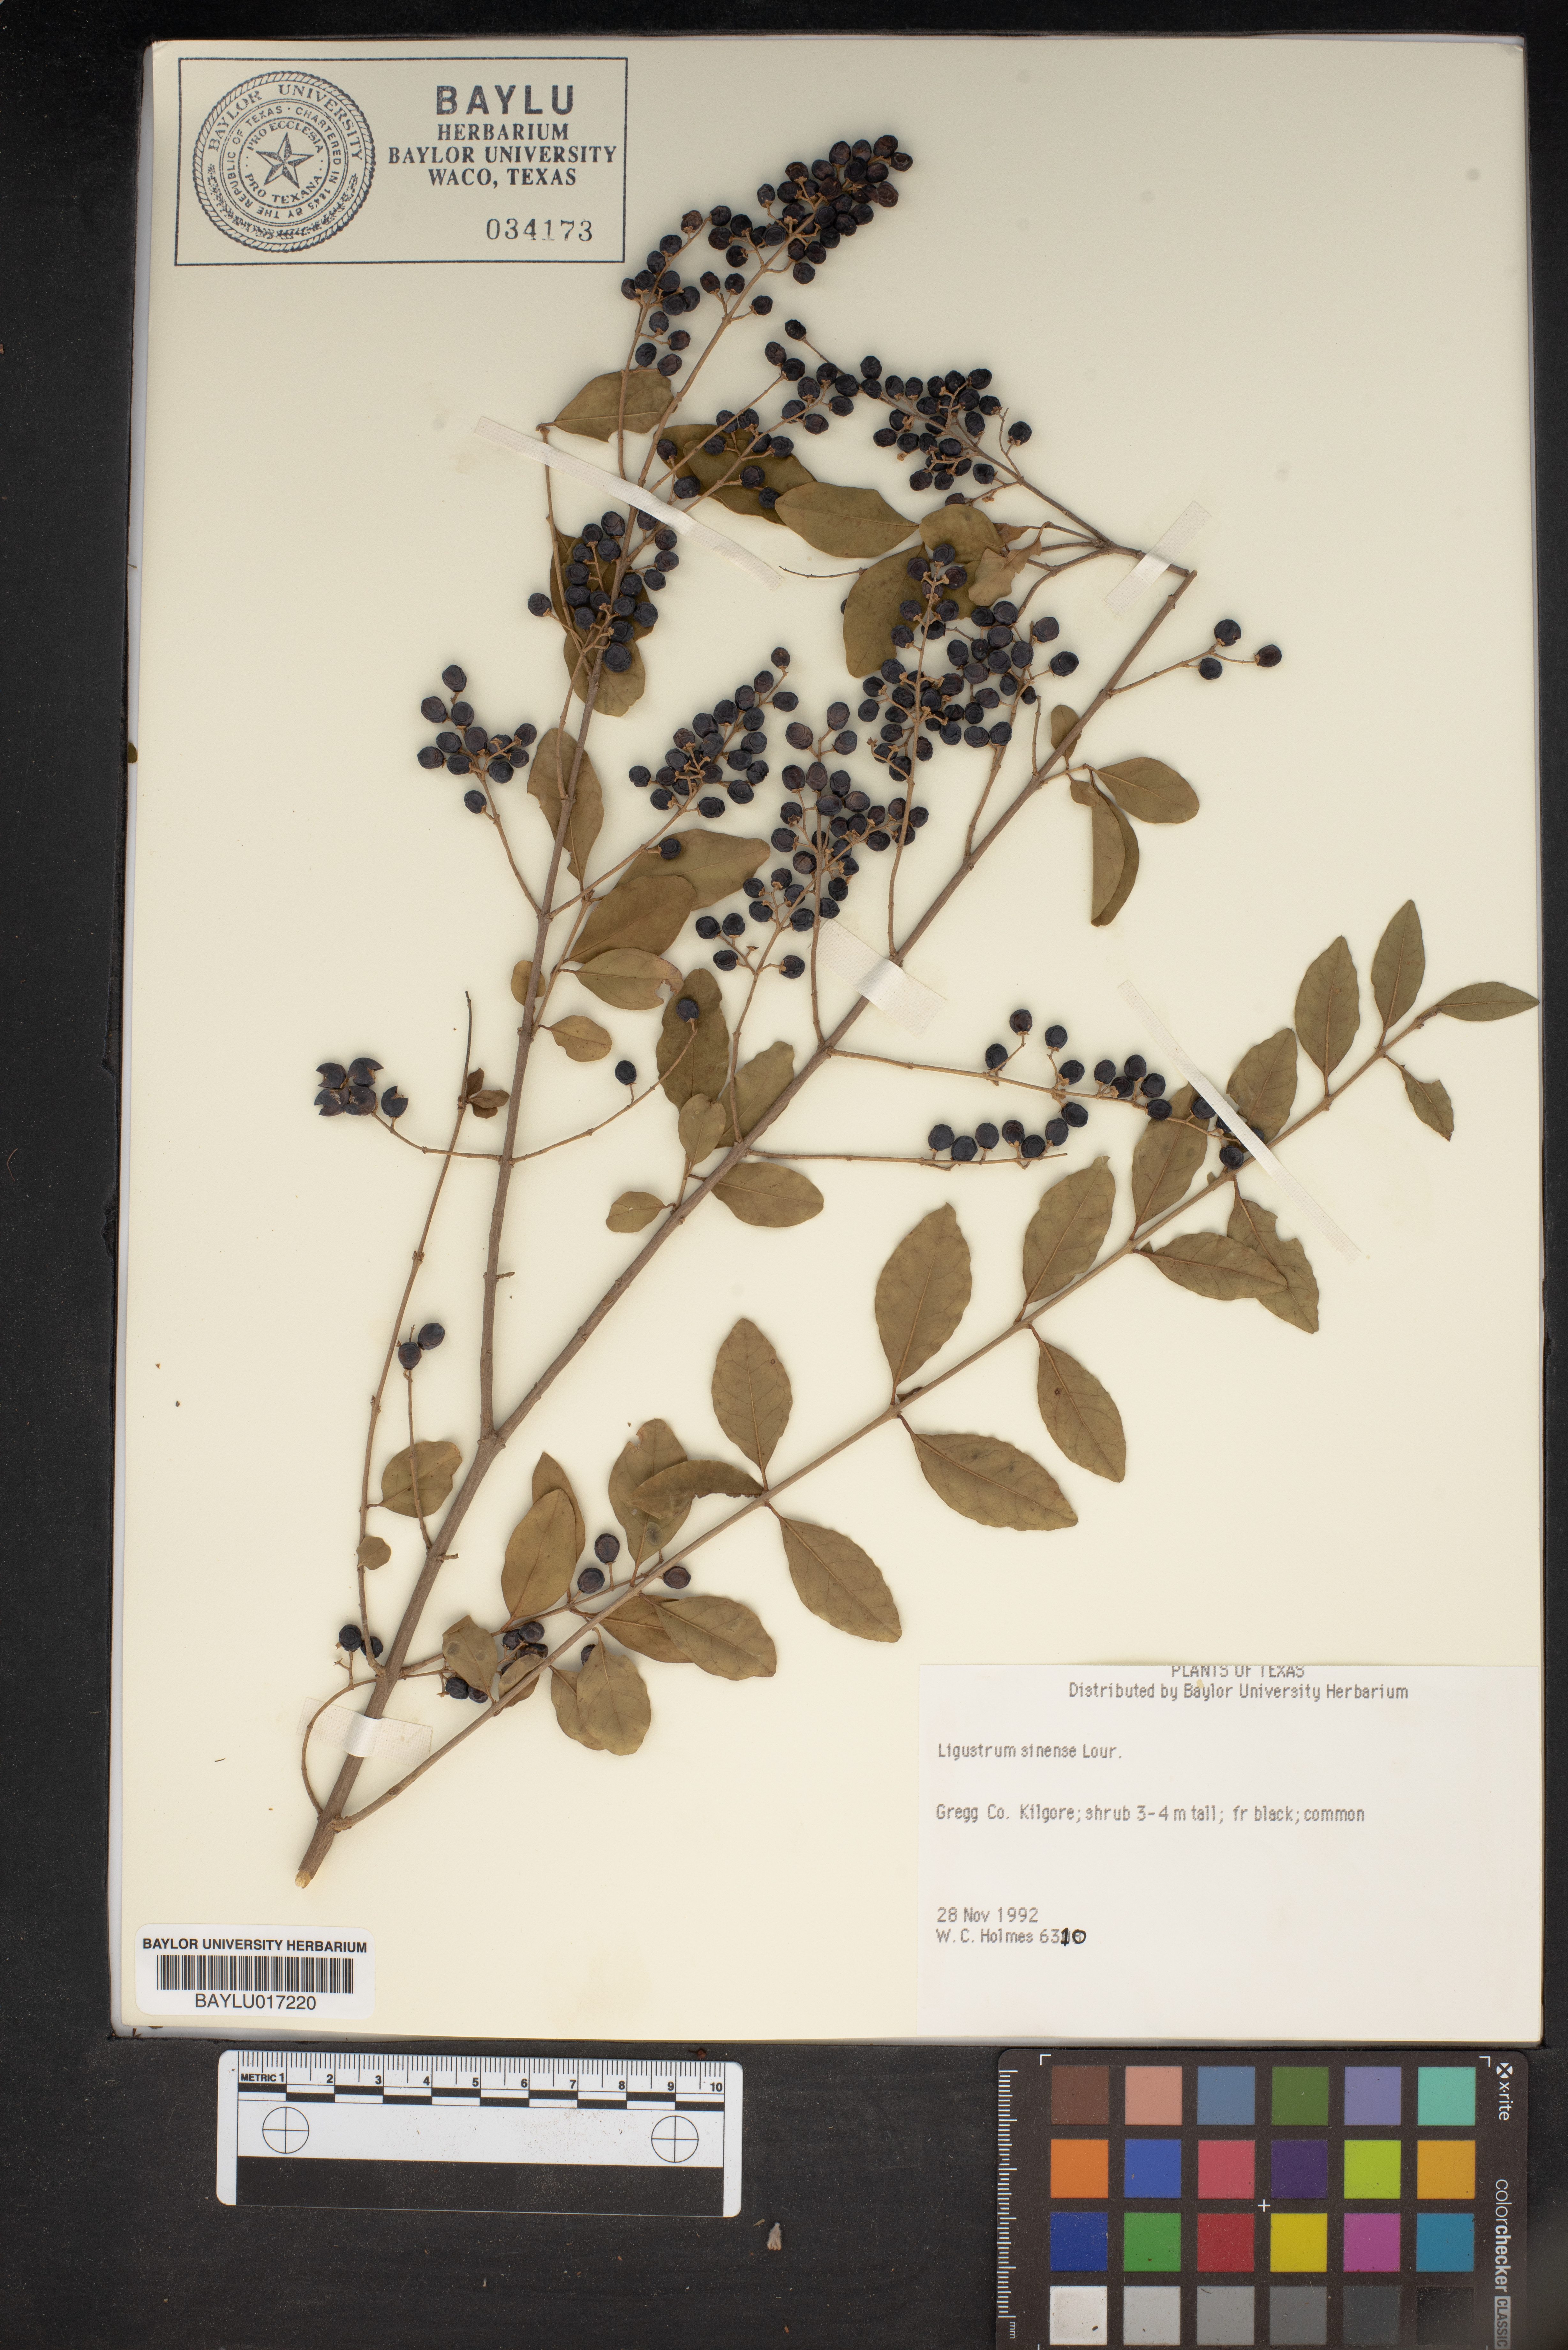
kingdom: Plantae
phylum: Tracheophyta
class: Magnoliopsida
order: Lamiales
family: Oleaceae
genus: Ligustrum
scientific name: Ligustrum sinense
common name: Chinese privet
